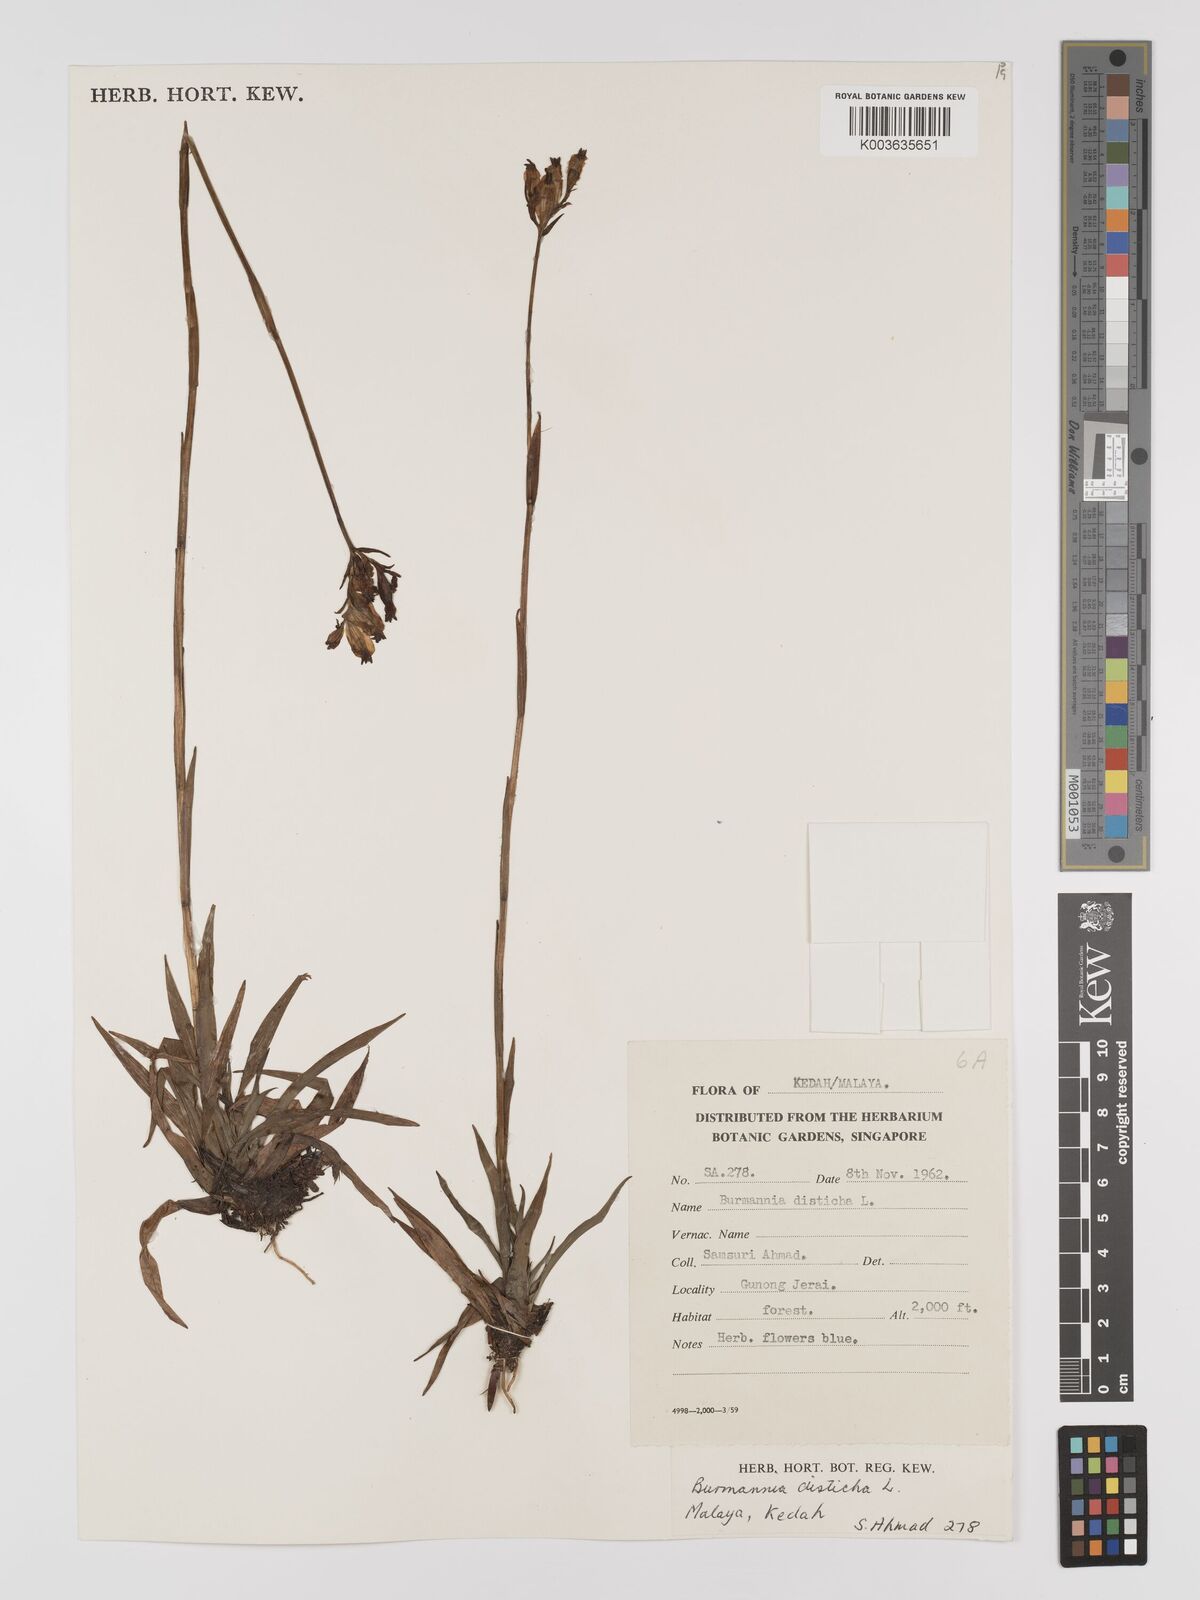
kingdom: Plantae
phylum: Tracheophyta
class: Liliopsida
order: Dioscoreales
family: Burmanniaceae
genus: Burmannia
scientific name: Burmannia disticha
